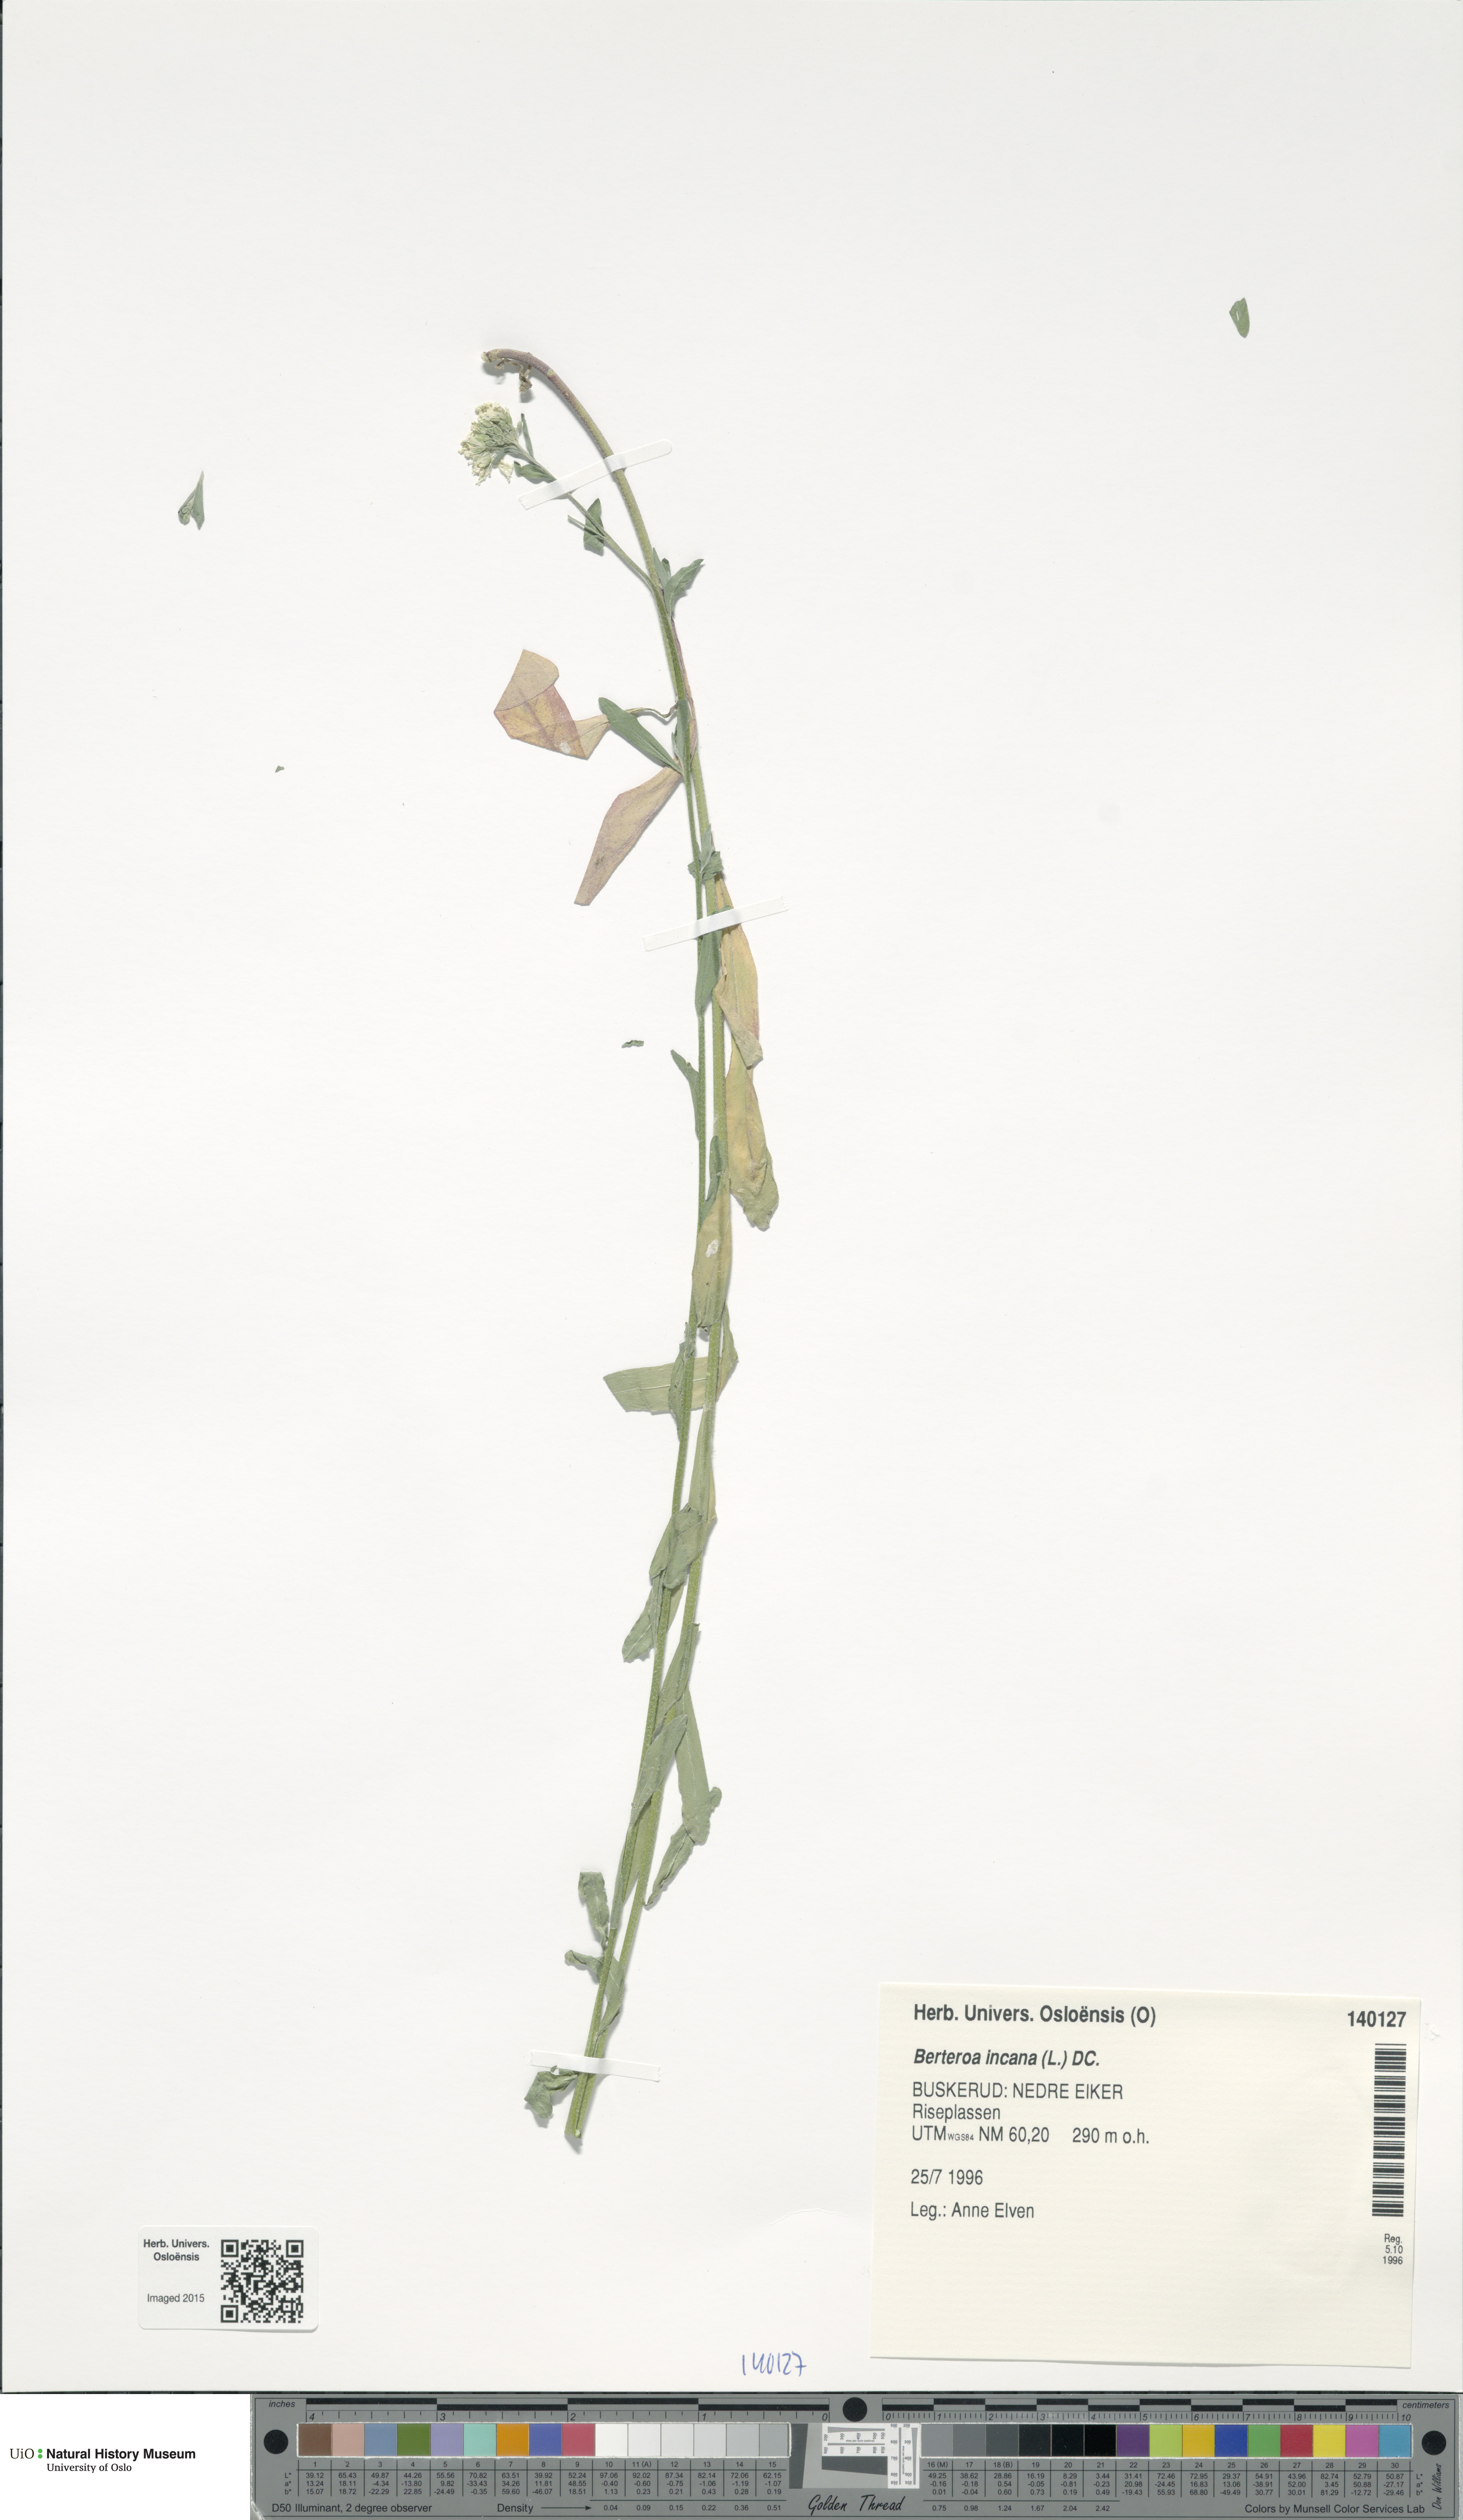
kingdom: Plantae
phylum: Tracheophyta
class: Magnoliopsida
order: Brassicales
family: Brassicaceae
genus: Berteroa
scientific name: Berteroa incana
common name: Hoary alison
